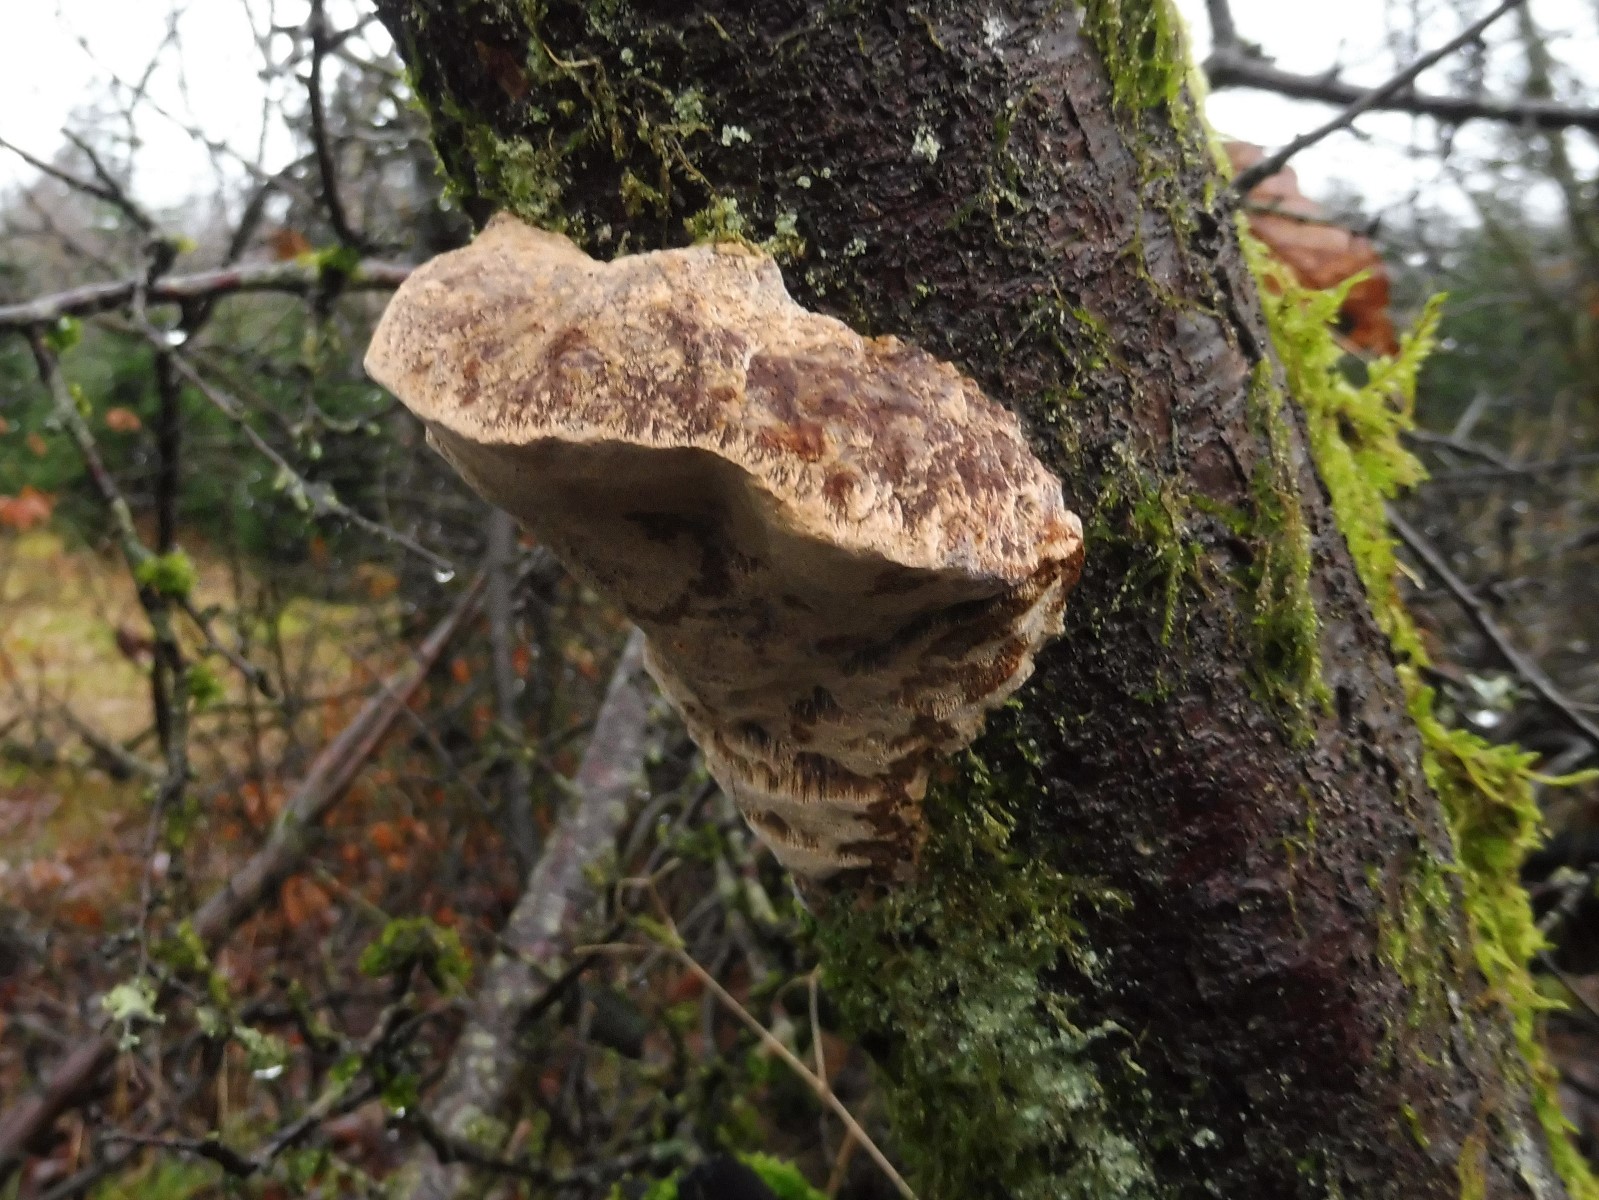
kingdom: Fungi
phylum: Basidiomycota
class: Agaricomycetes
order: Hymenochaetales
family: Hymenochaetaceae
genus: Phellinus
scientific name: Phellinus pomaceus
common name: blomme-ildporesvamp
